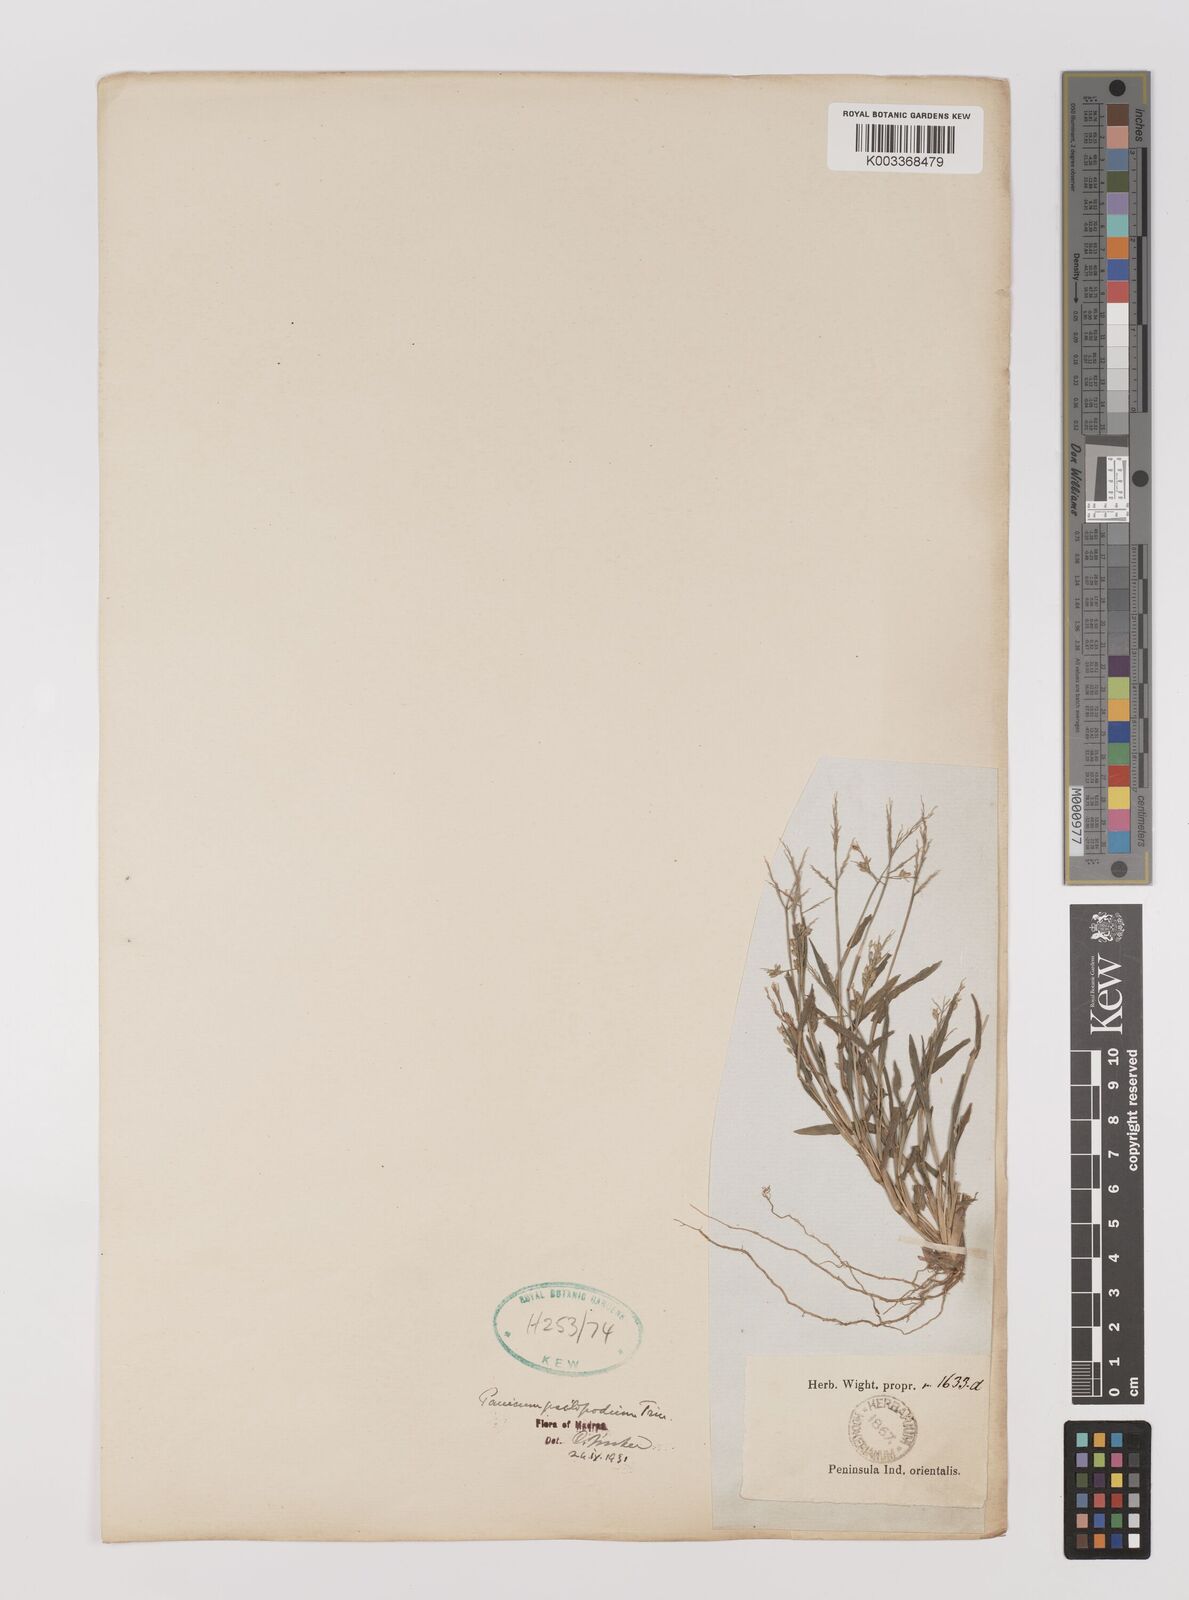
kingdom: Plantae
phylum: Tracheophyta
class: Liliopsida
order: Poales
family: Poaceae
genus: Panicum
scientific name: Panicum sumatrense
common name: Little millet
